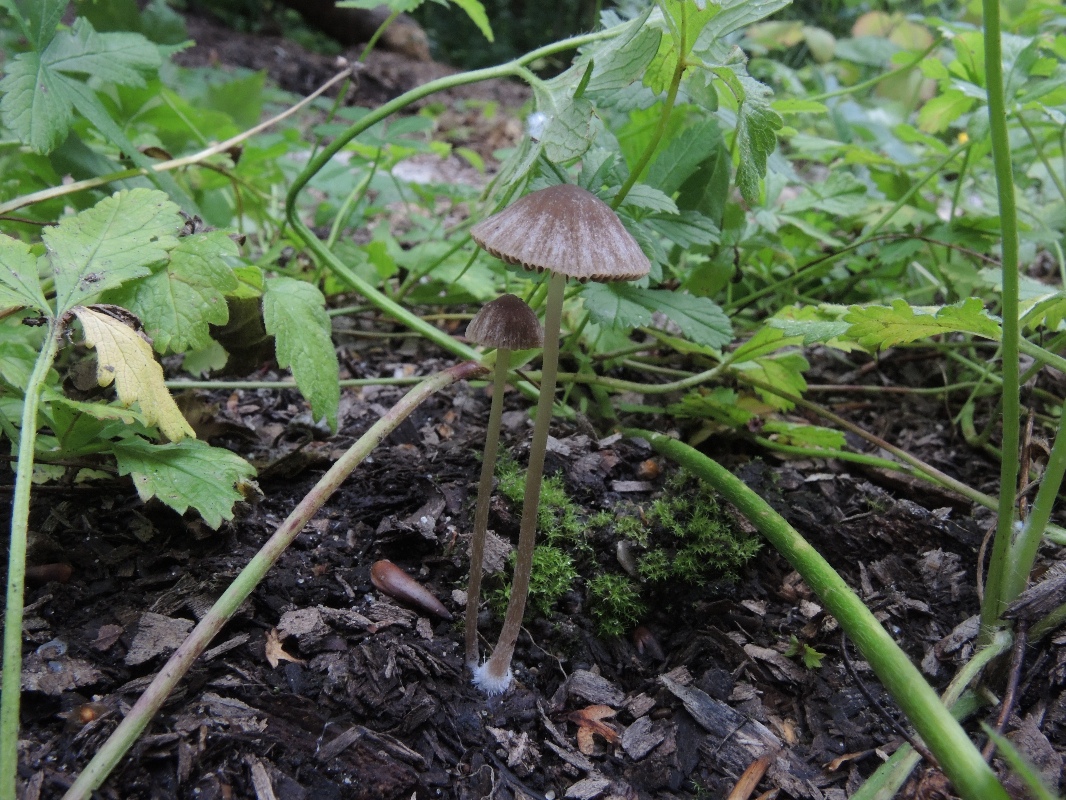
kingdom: Fungi
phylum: Basidiomycota
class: Agaricomycetes
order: Agaricales
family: Psathyrellaceae
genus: Psathyrella
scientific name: Psathyrella orbicularis
